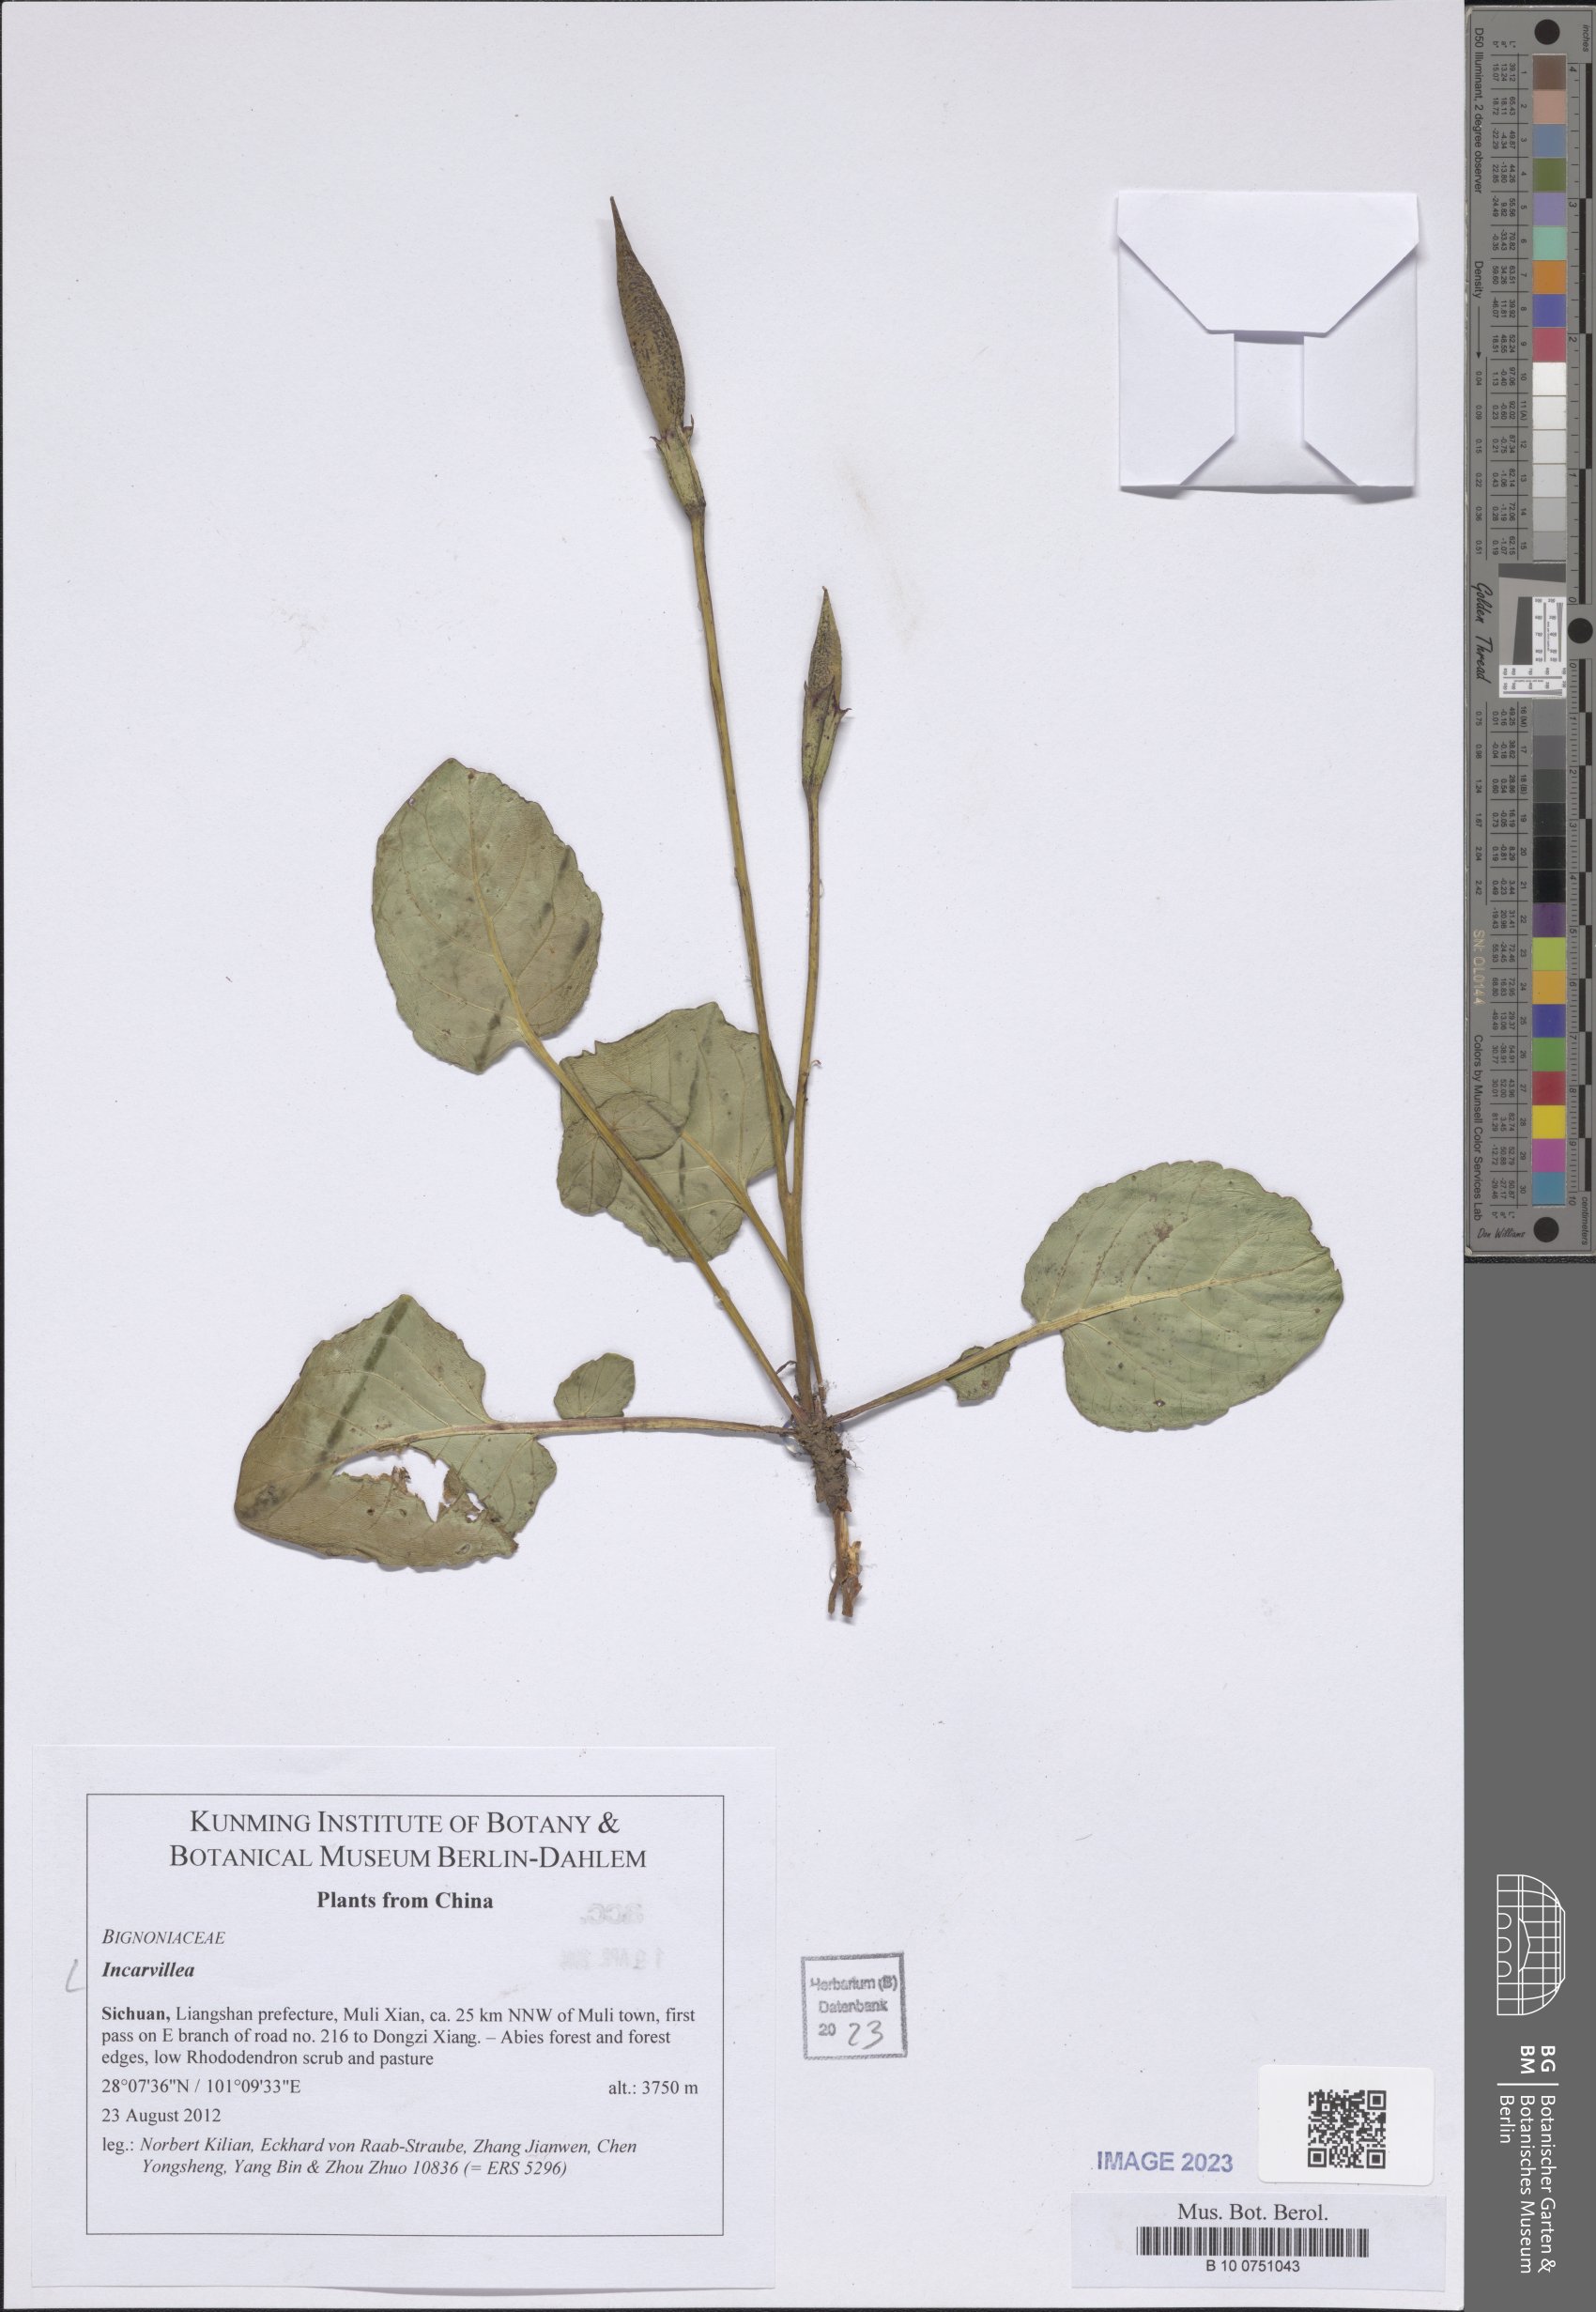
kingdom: Plantae
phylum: Tracheophyta
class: Magnoliopsida
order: Lamiales
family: Bignoniaceae
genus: Incarvillea
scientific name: Incarvillea
